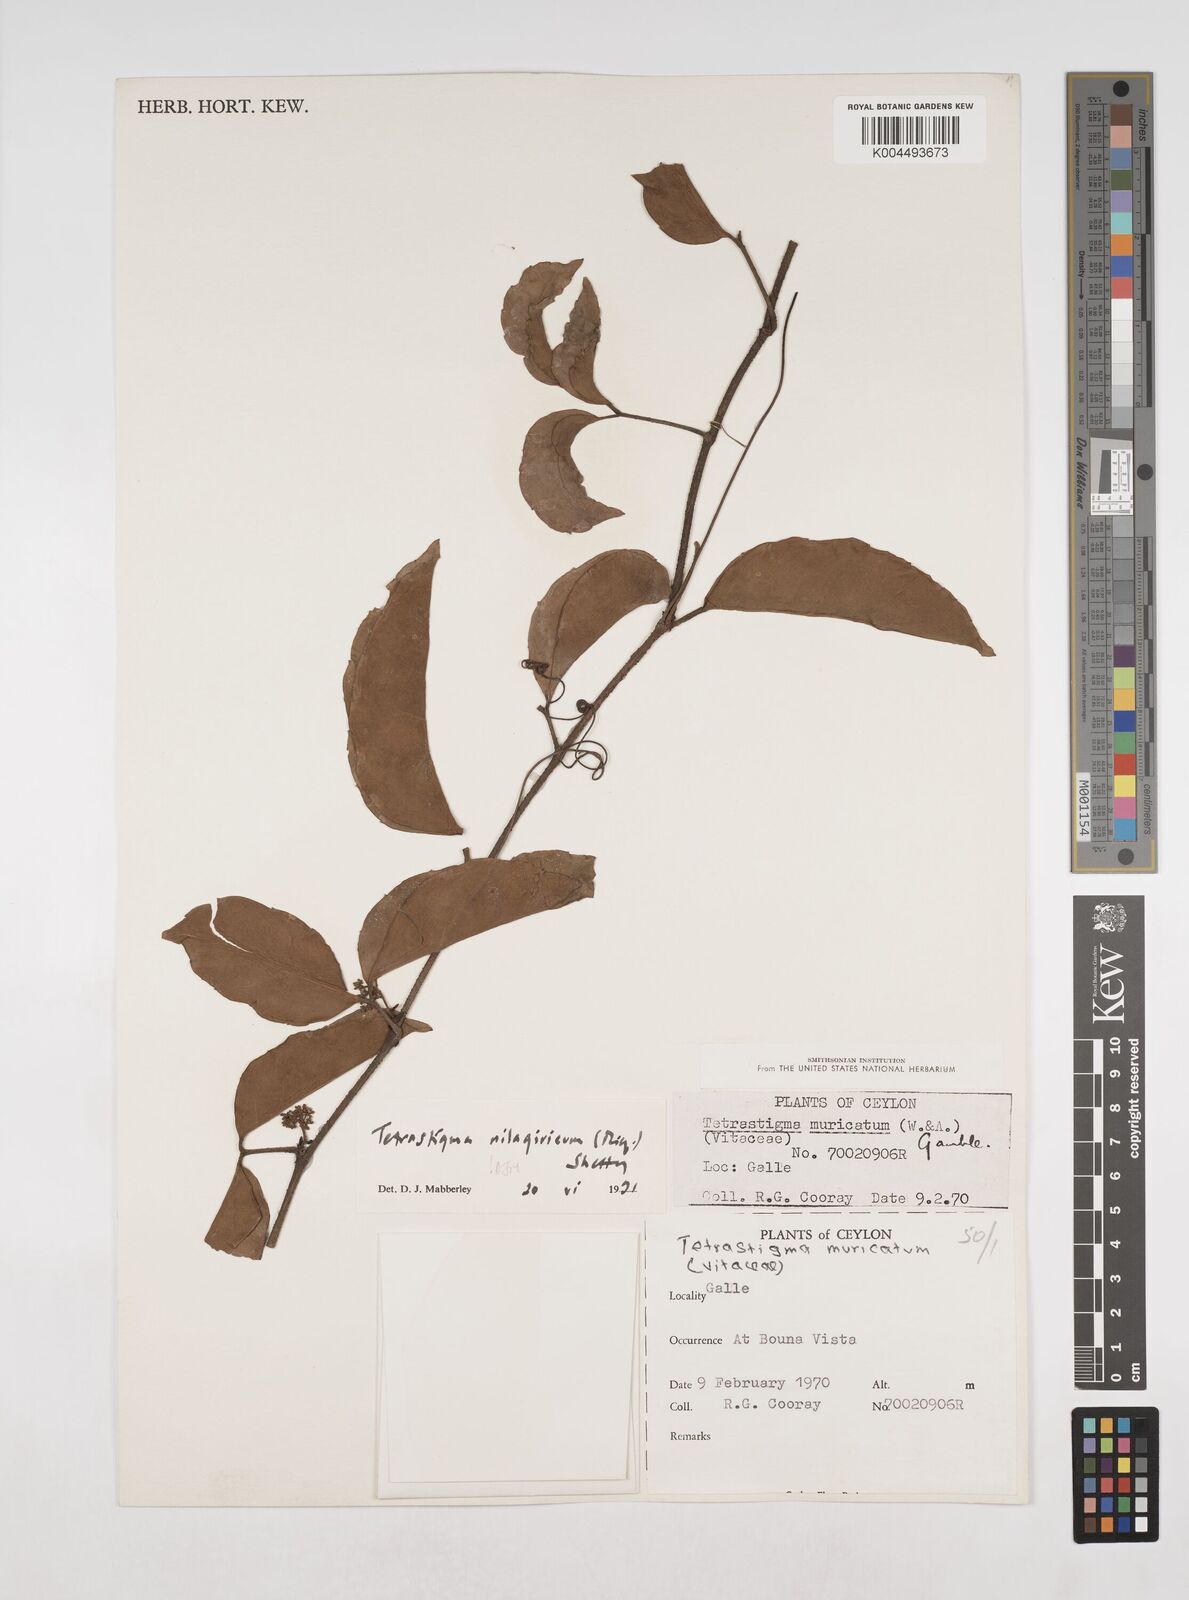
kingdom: Plantae
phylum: Tracheophyta
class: Magnoliopsida
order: Vitales
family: Vitaceae
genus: Tetrastigma
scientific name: Tetrastigma leucostaphylum
